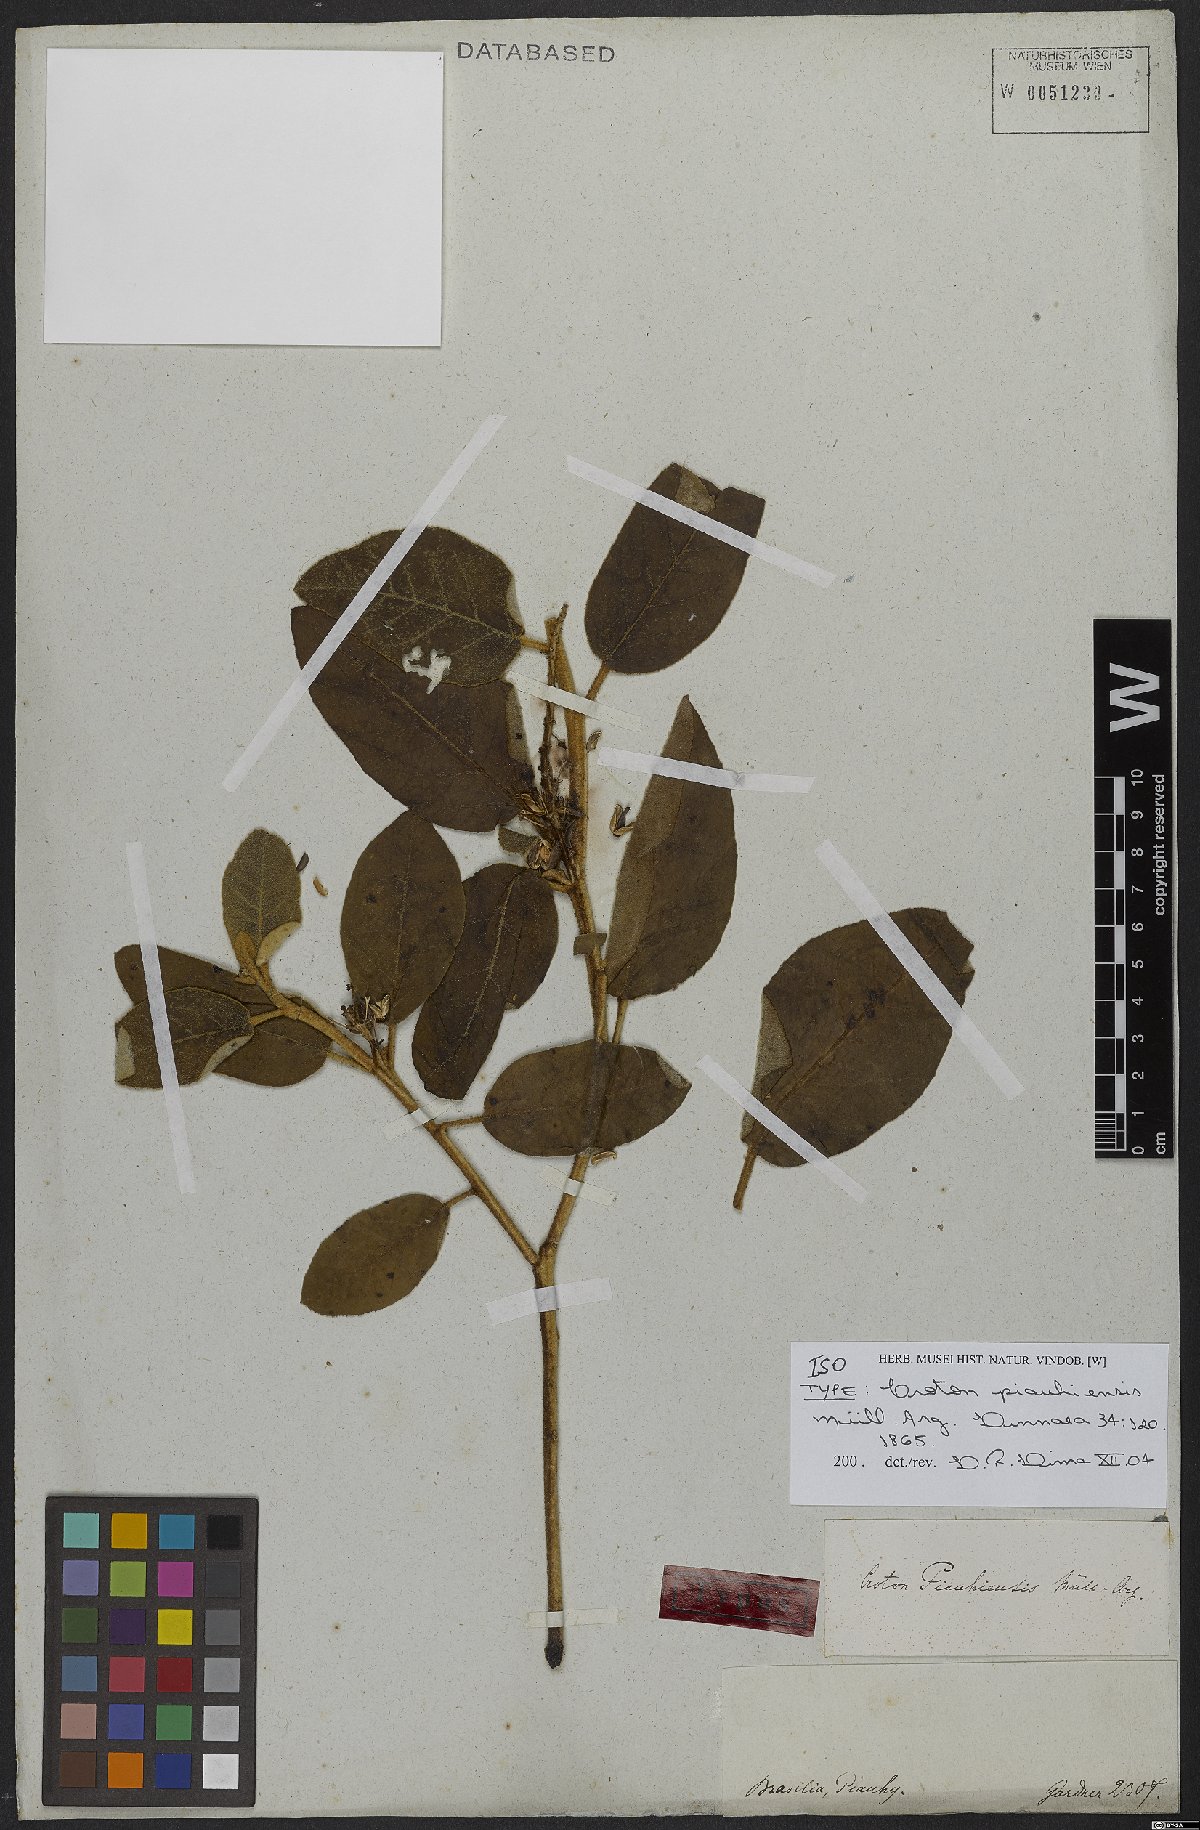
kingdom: Plantae
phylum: Tracheophyta
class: Magnoliopsida
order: Malpighiales
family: Euphorbiaceae
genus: Croton
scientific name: Croton piauhiensis
